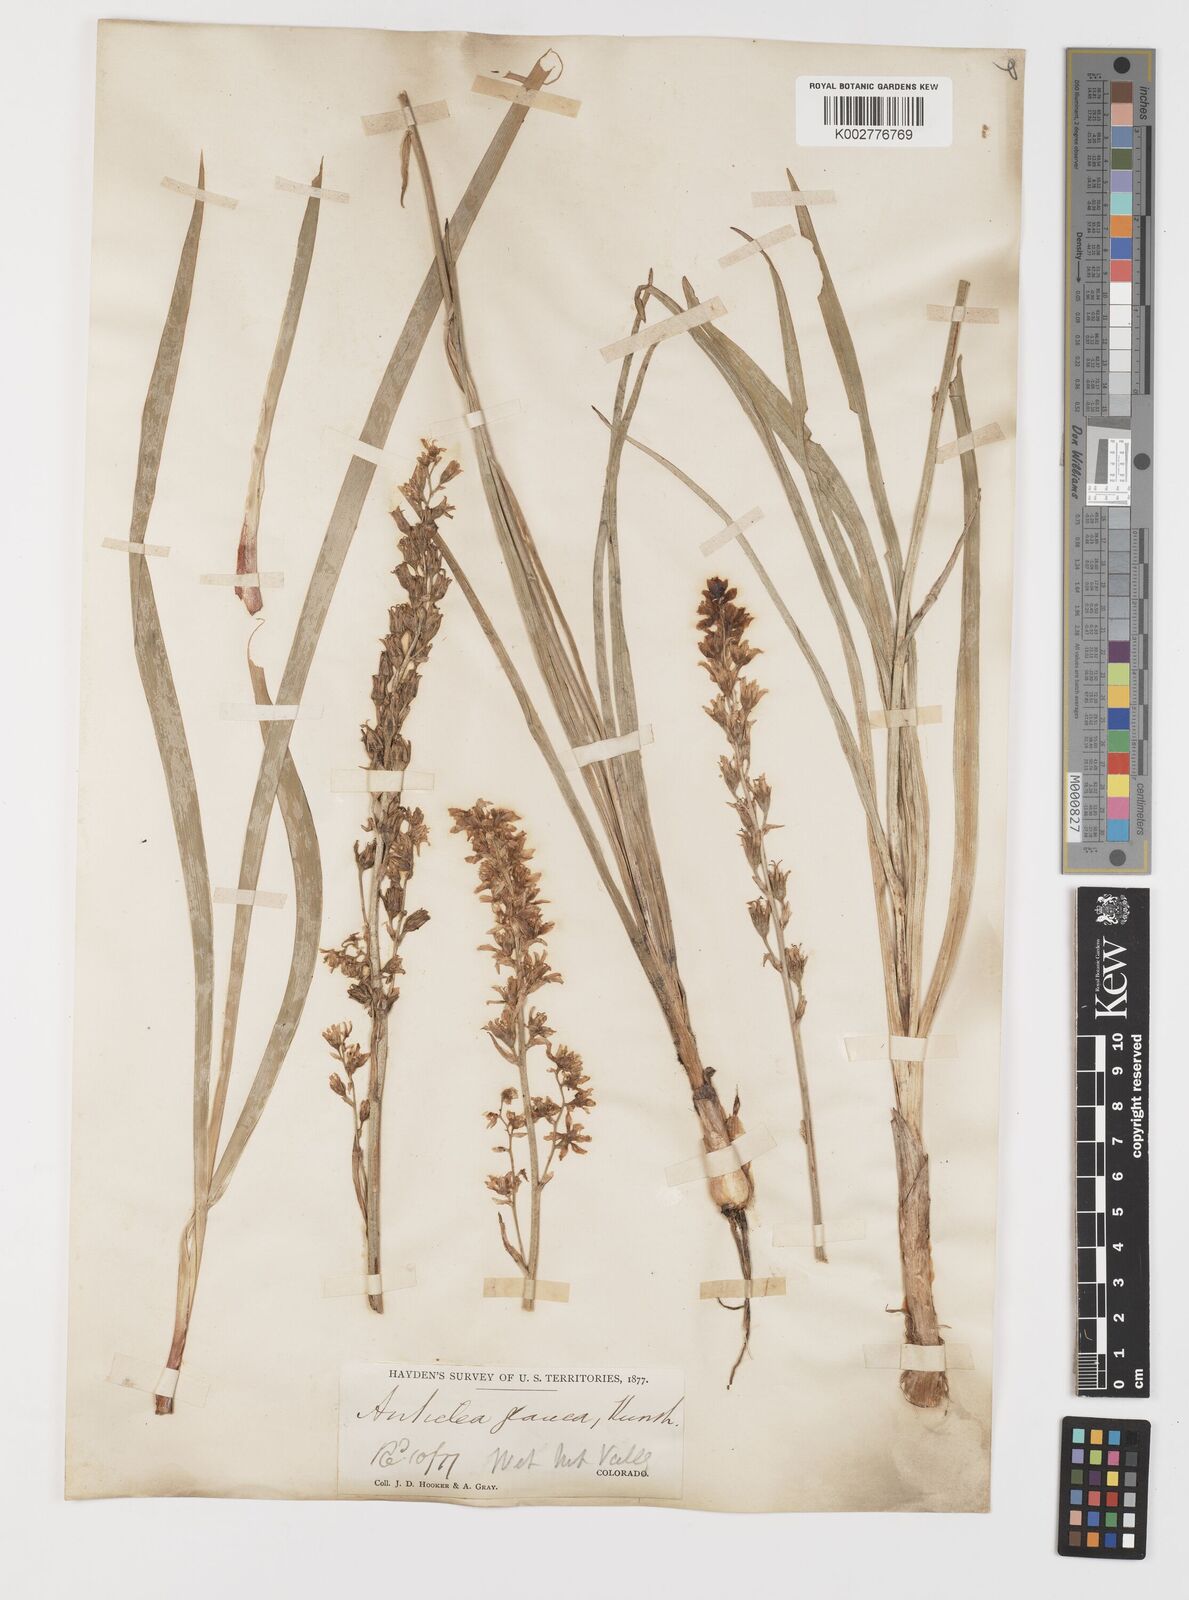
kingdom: Plantae
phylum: Tracheophyta
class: Liliopsida
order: Liliales
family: Melanthiaceae
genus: Anticlea
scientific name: Anticlea elegans
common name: Mountain death camas
